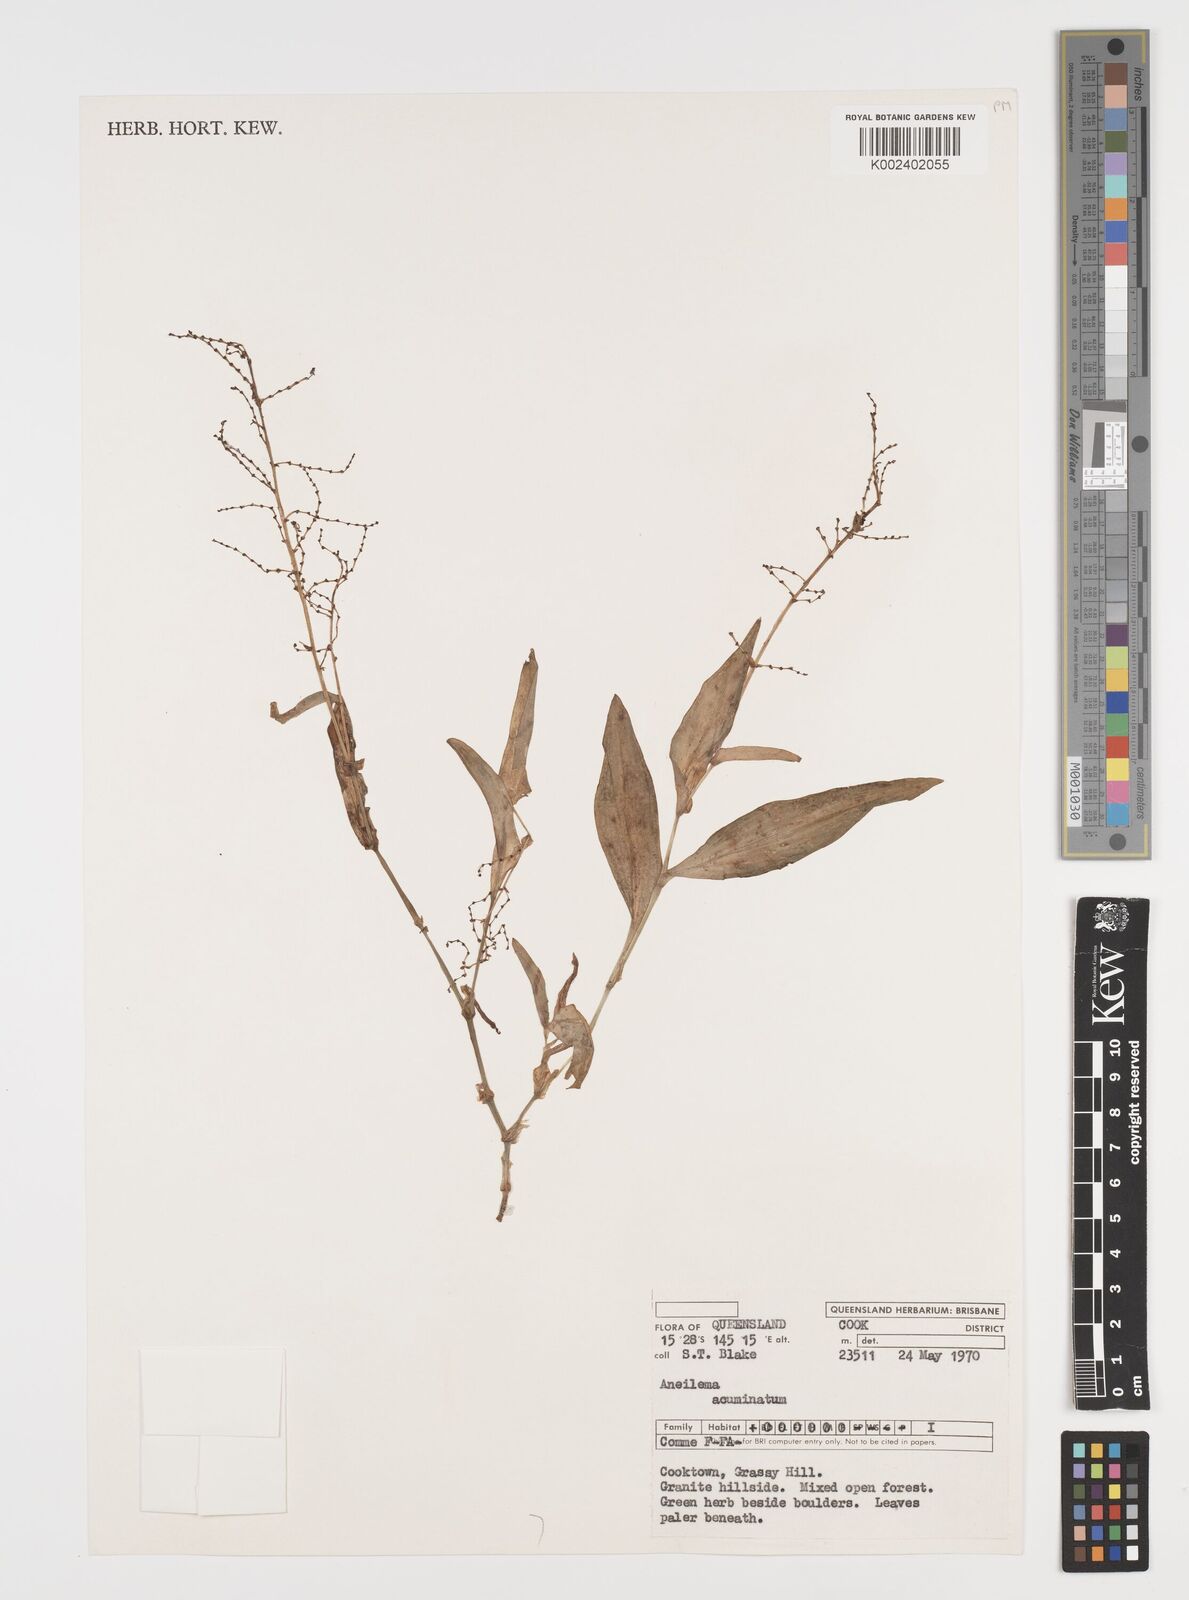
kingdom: Plantae
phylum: Tracheophyta
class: Liliopsida
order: Commelinales
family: Commelinaceae
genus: Aneilema
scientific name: Aneilema acuminatum
